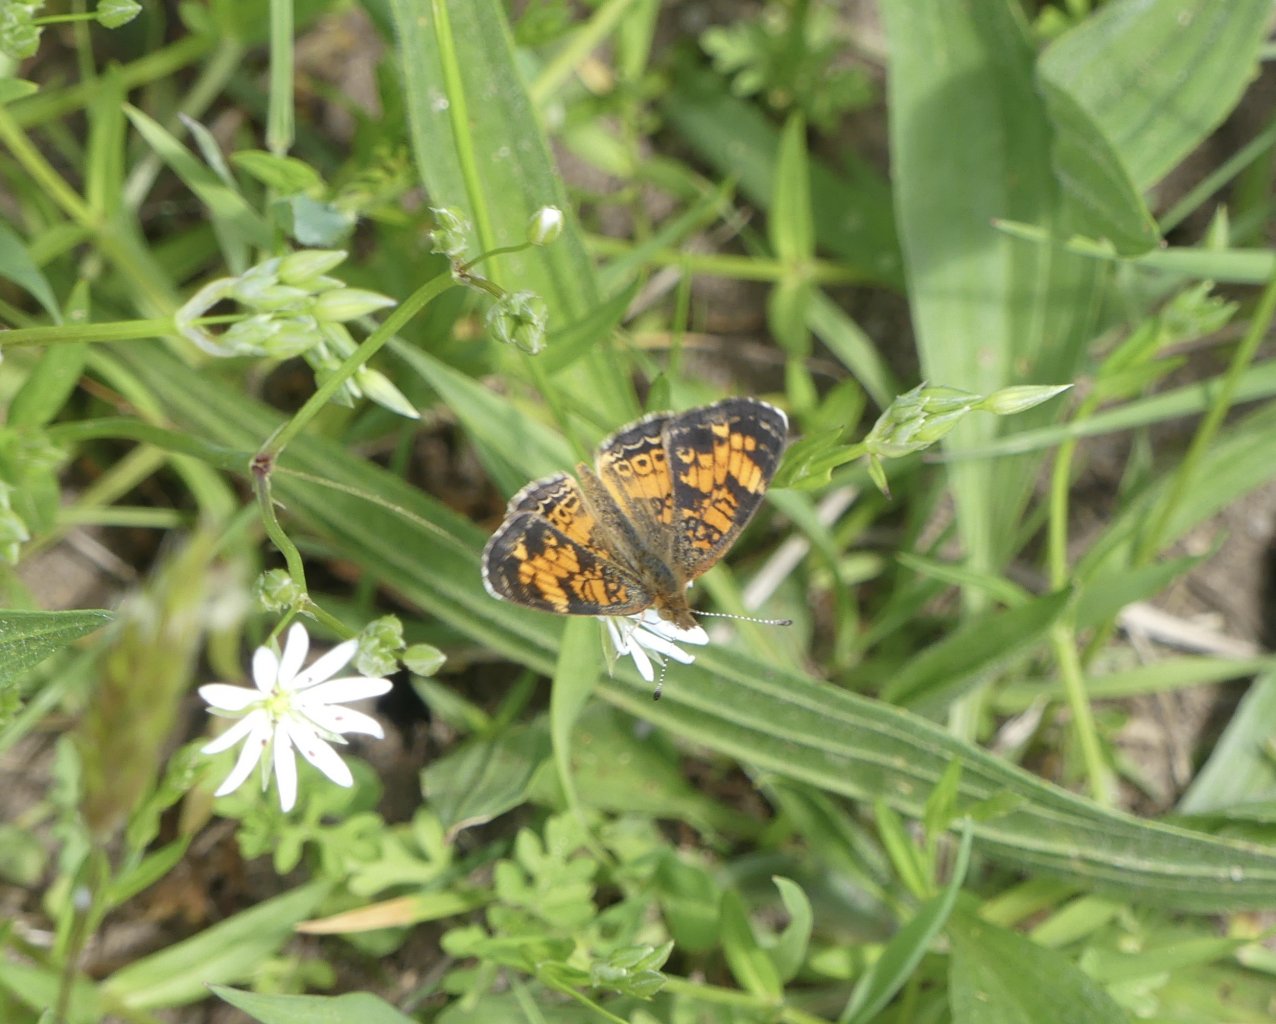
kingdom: Animalia
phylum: Arthropoda
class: Insecta
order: Lepidoptera
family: Nymphalidae
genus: Phyciodes
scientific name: Phyciodes tharos
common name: Pearl Crescent
